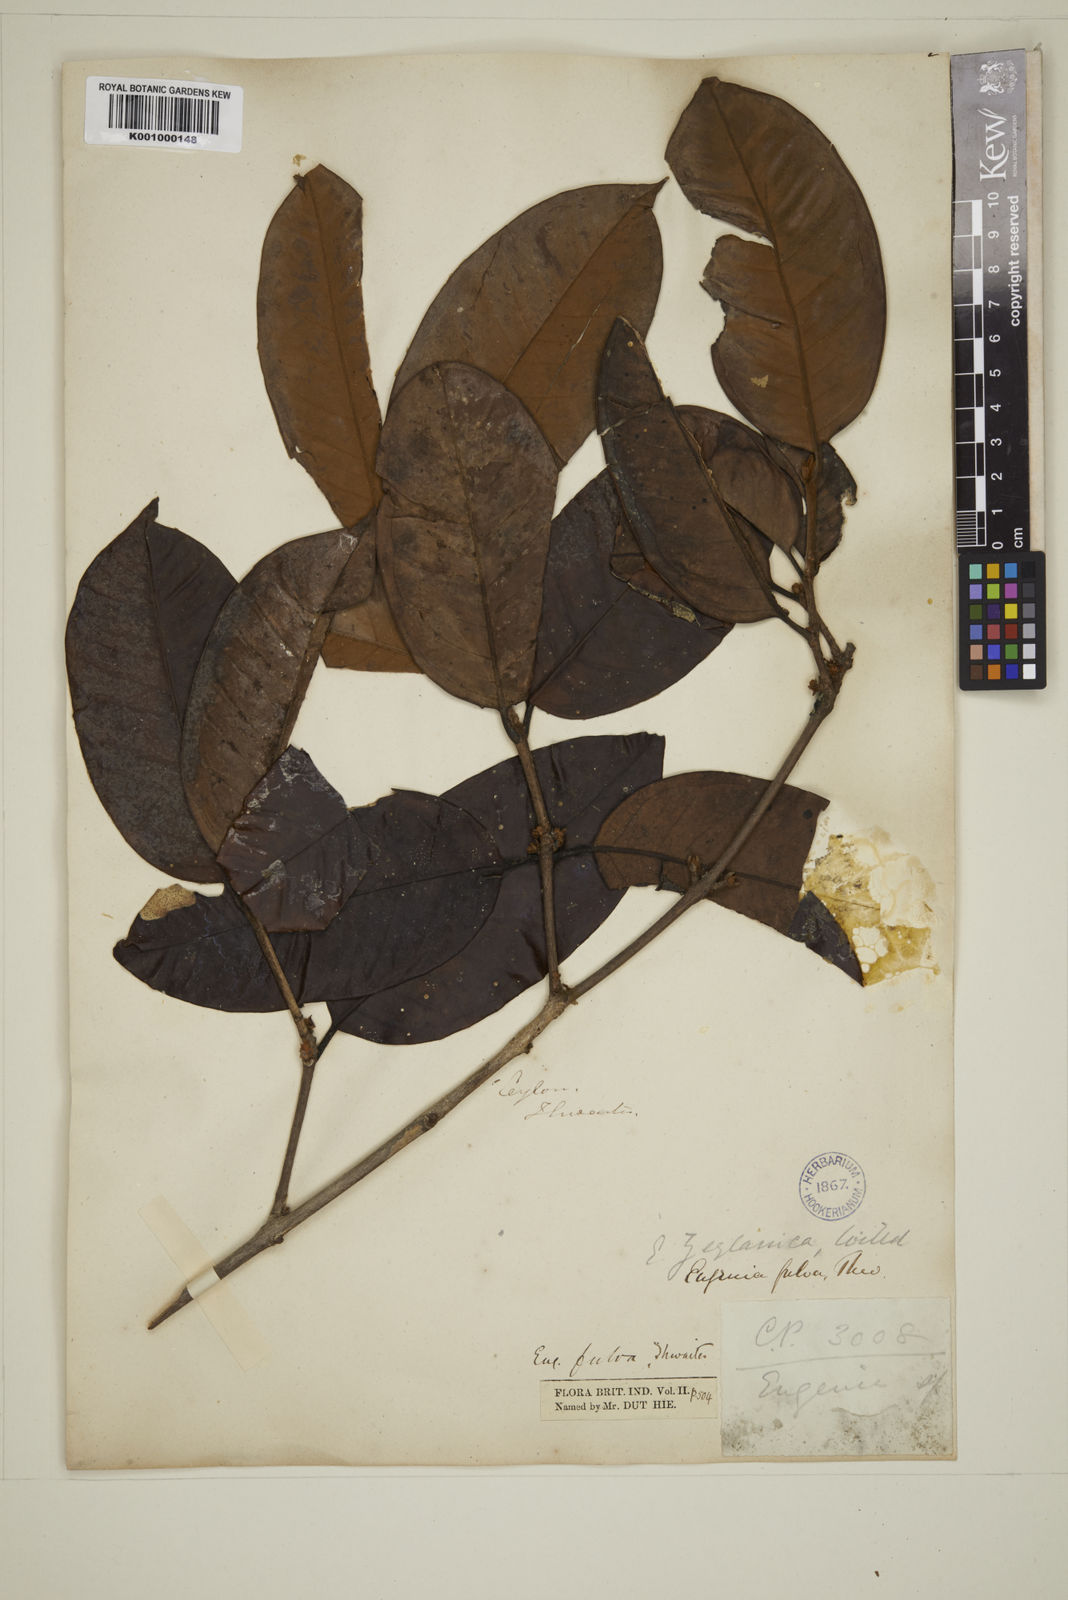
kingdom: Plantae
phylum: Tracheophyta
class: Magnoliopsida
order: Myrtales
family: Myrtaceae
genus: Eugenia
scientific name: Eugenia fulva
